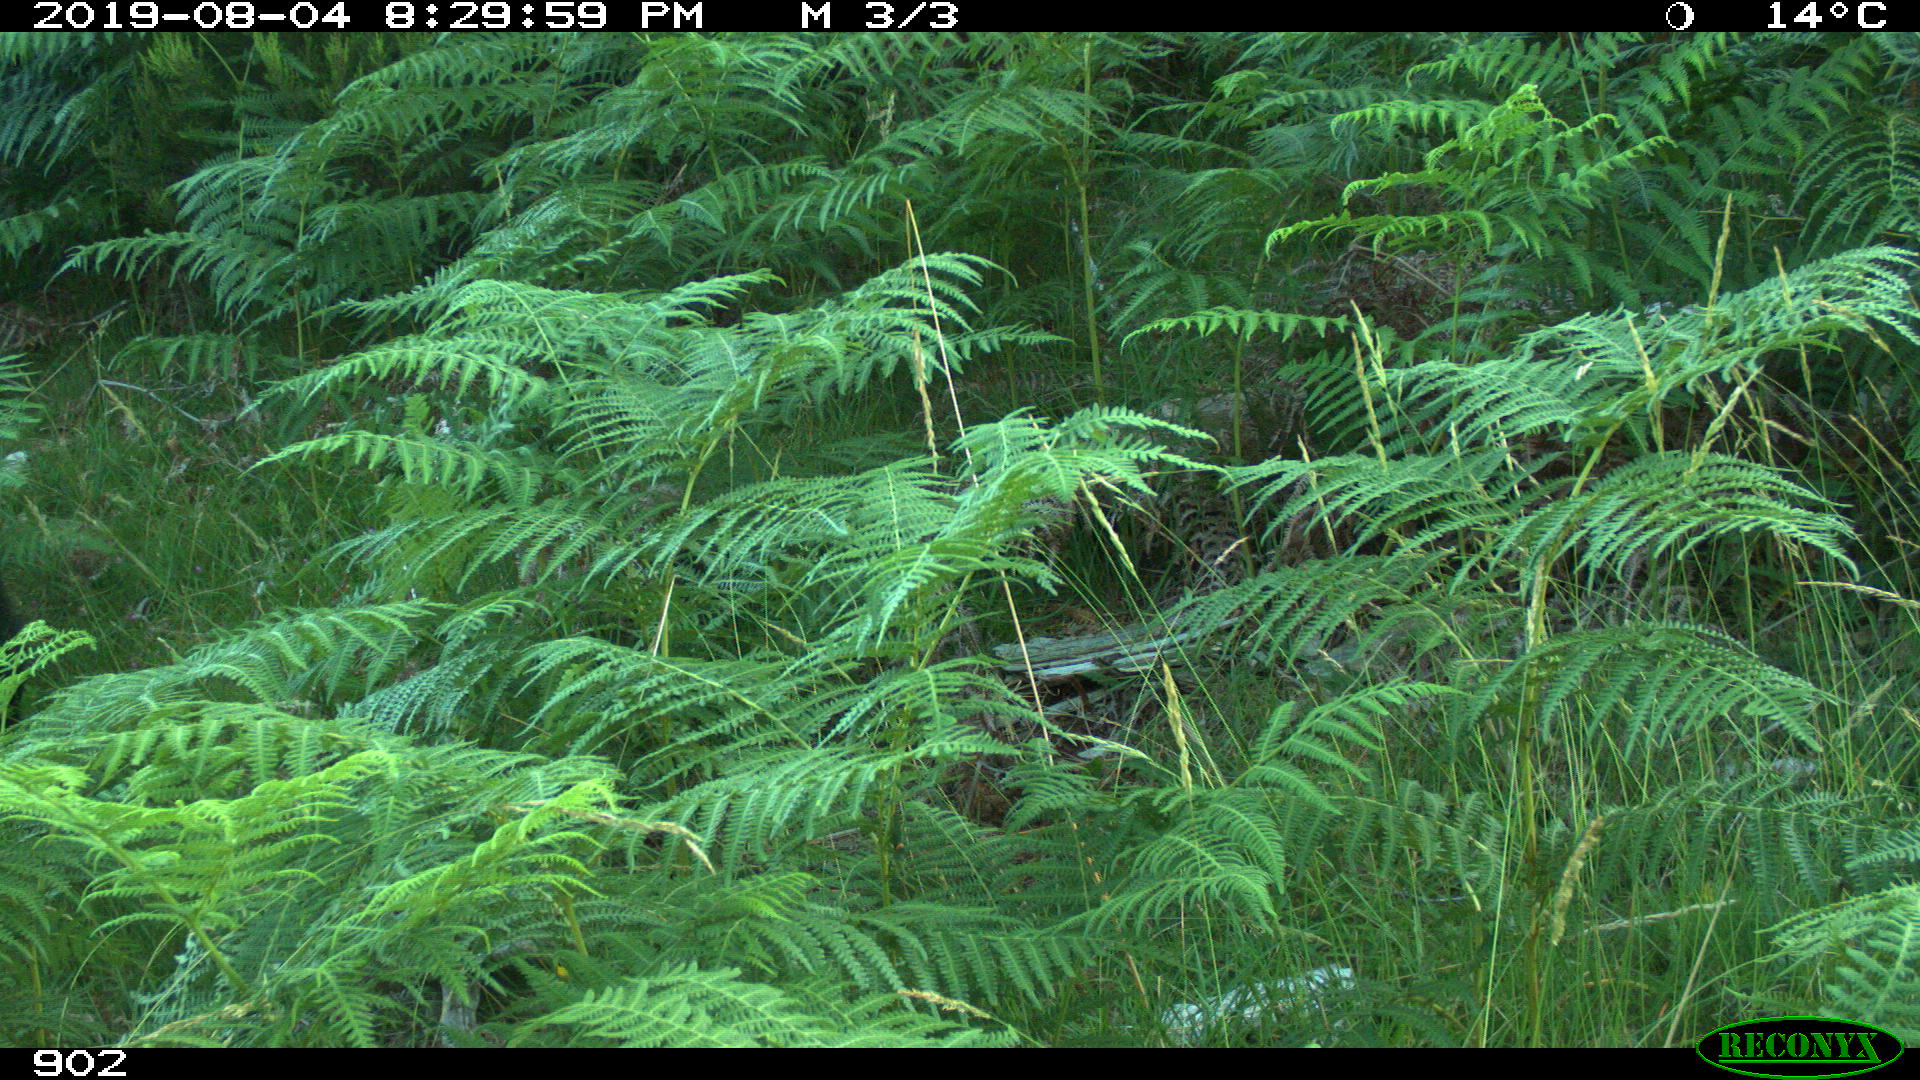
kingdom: Animalia
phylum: Chordata
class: Mammalia
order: Artiodactyla
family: Suidae
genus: Sus
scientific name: Sus scrofa
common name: Wild boar
